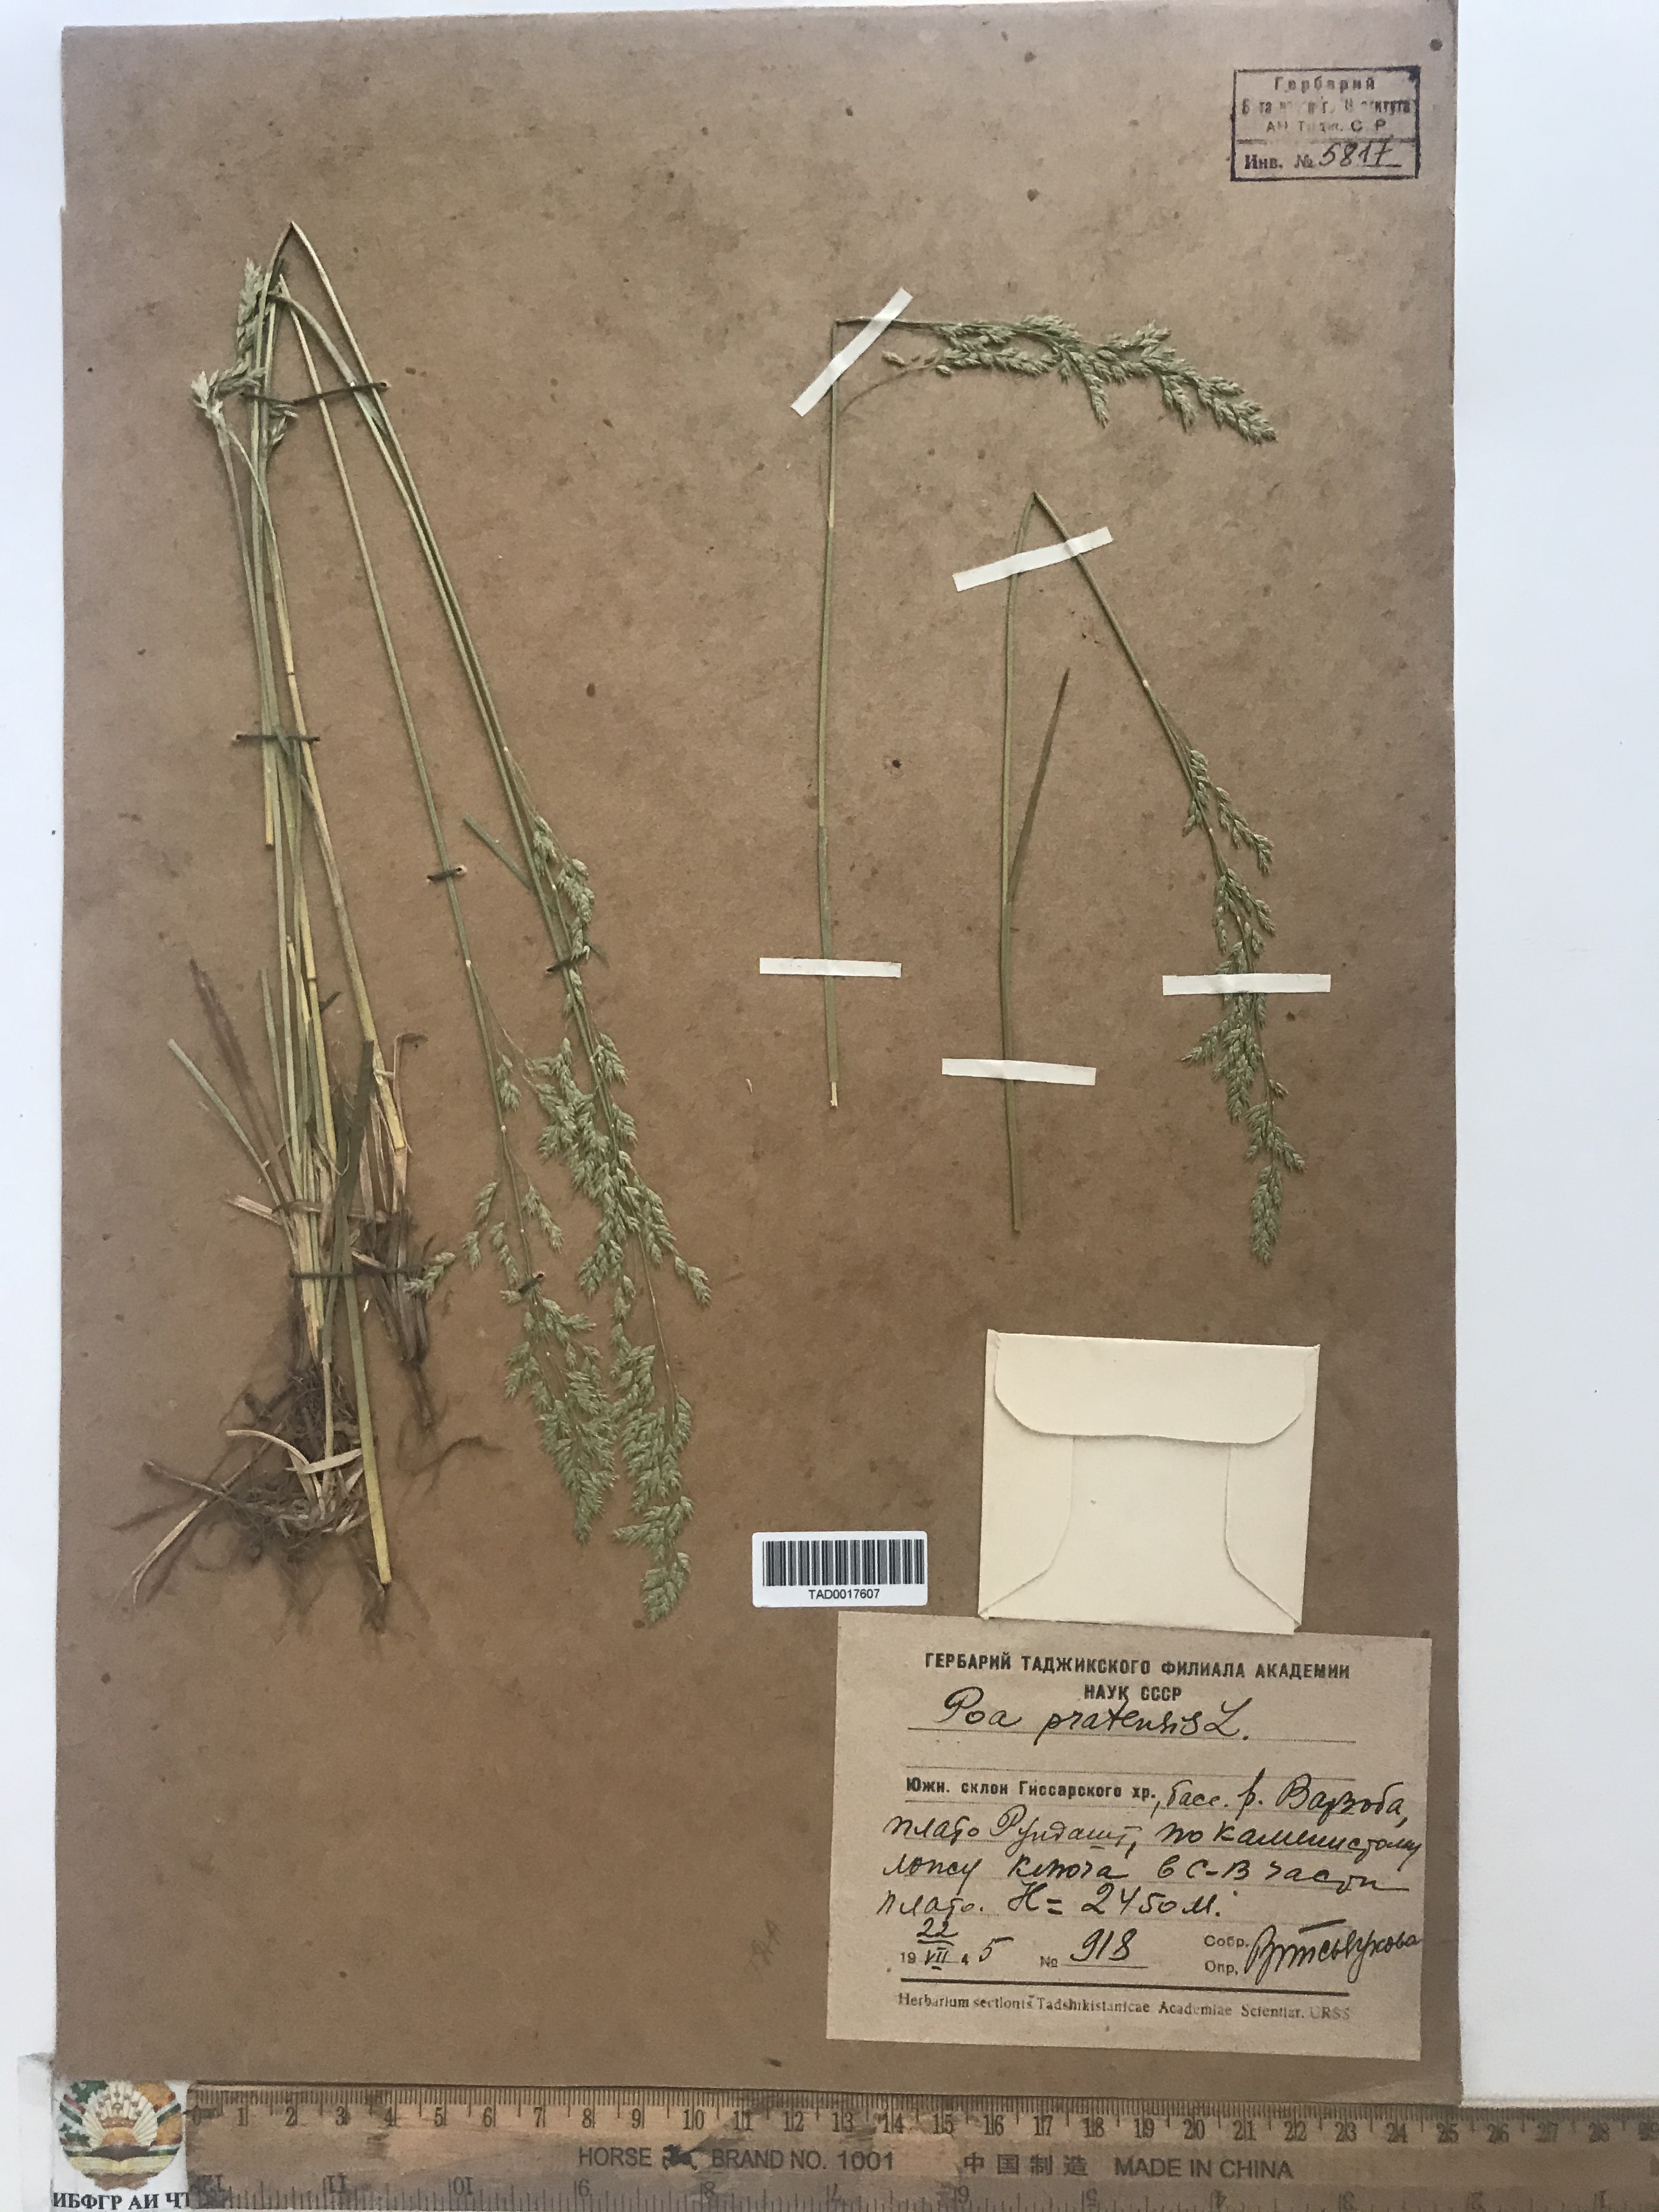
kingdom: Plantae
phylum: Tracheophyta
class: Liliopsida
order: Poales
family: Poaceae
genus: Poa
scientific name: Poa pratensis
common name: Kentucky bluegrass
